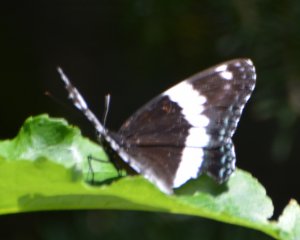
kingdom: Animalia
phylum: Arthropoda
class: Insecta
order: Lepidoptera
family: Nymphalidae
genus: Limenitis
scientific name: Limenitis arthemis
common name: Red-spotted Admiral
